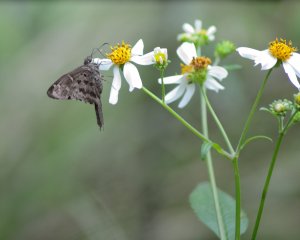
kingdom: Animalia
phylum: Arthropoda
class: Insecta
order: Lepidoptera
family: Hesperiidae
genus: Urbanus
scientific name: Urbanus dorantes
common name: Dorantes Longtail
